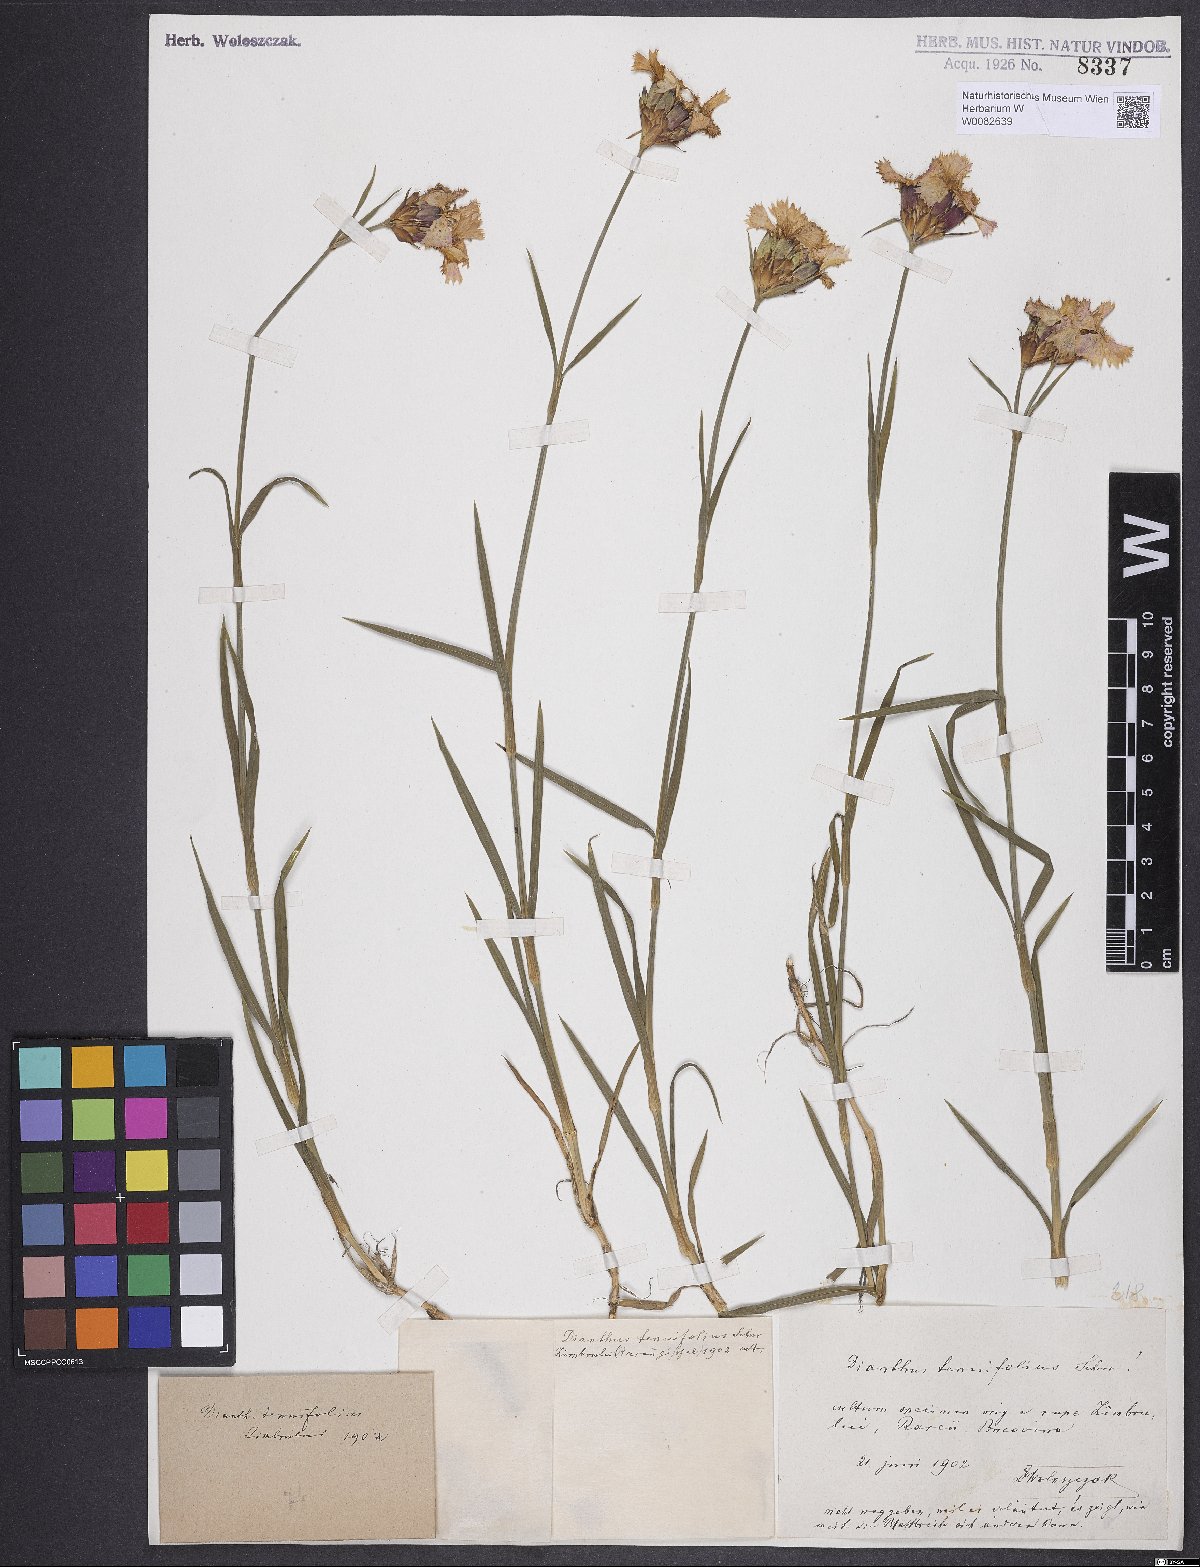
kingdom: Plantae
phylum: Tracheophyta
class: Magnoliopsida
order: Caryophyllales
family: Caryophyllaceae
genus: Dianthus
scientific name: Dianthus carthusianorum
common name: Carthusian pink
